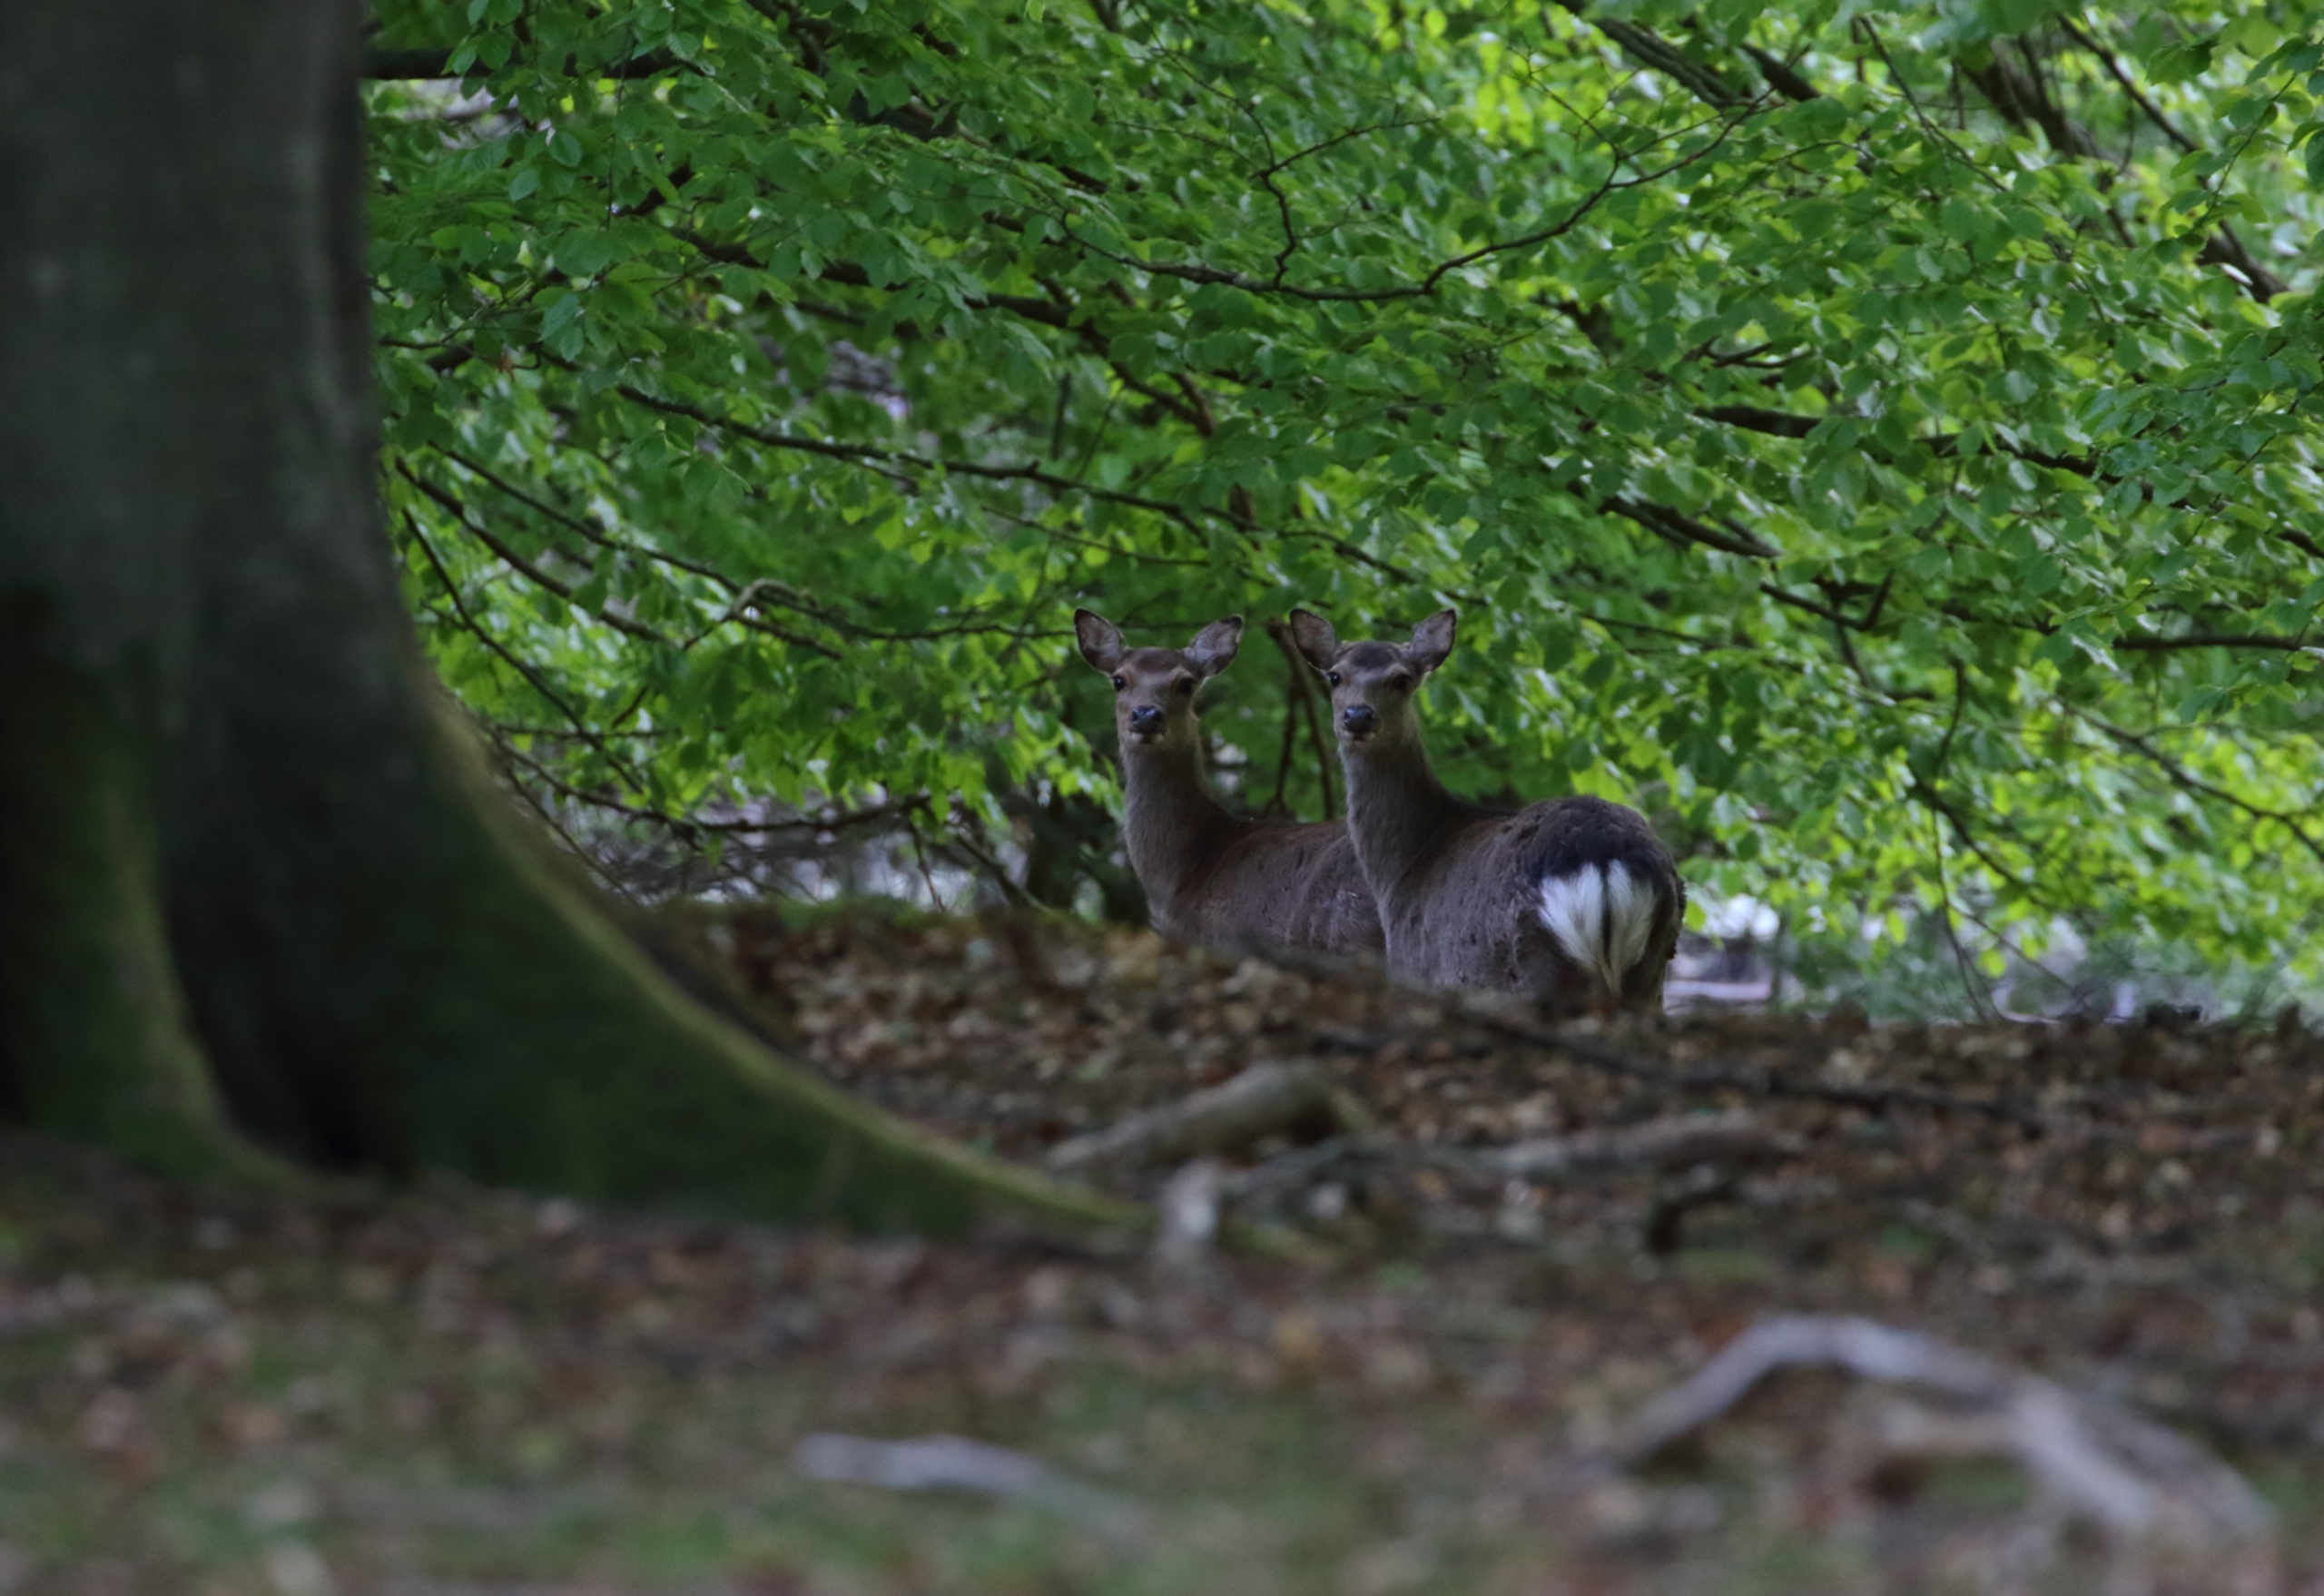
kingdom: Animalia
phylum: Chordata
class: Mammalia
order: Artiodactyla
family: Cervidae
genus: Cervus
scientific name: Cervus nippon
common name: Sika
